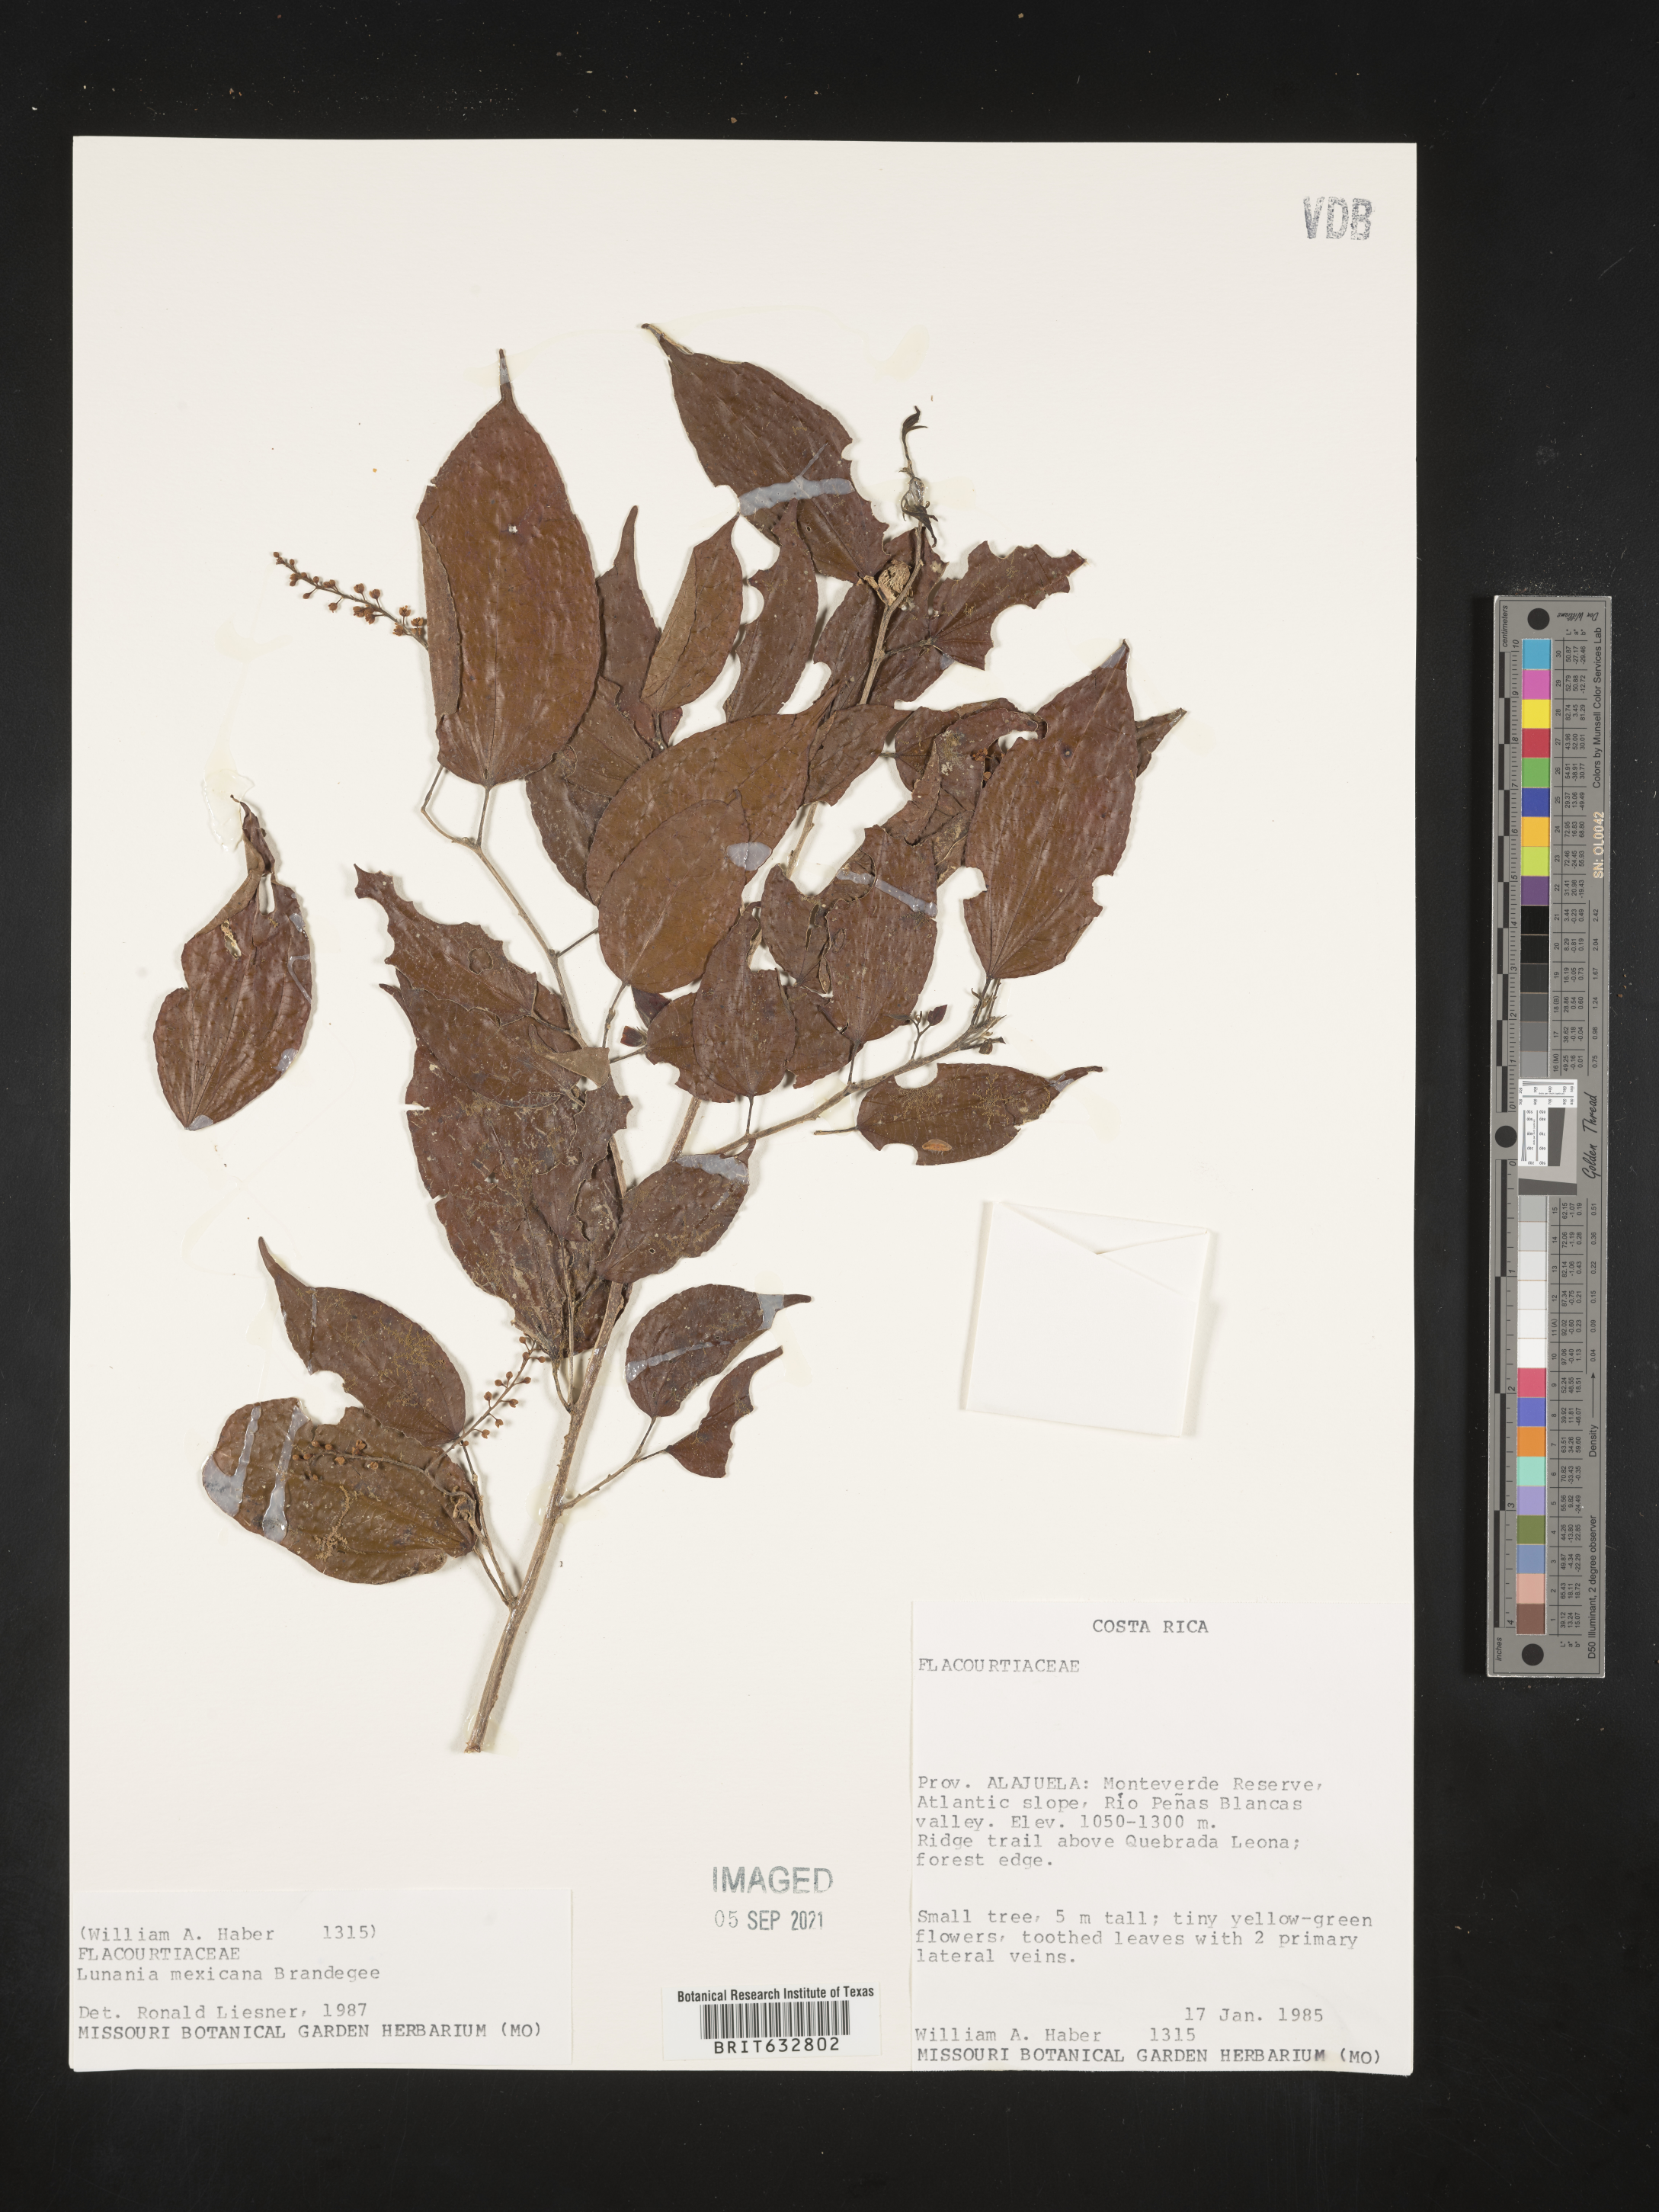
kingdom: Plantae
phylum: Tracheophyta
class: Magnoliopsida
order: Malpighiales
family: Salicaceae
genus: Lunania
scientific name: Lunania
